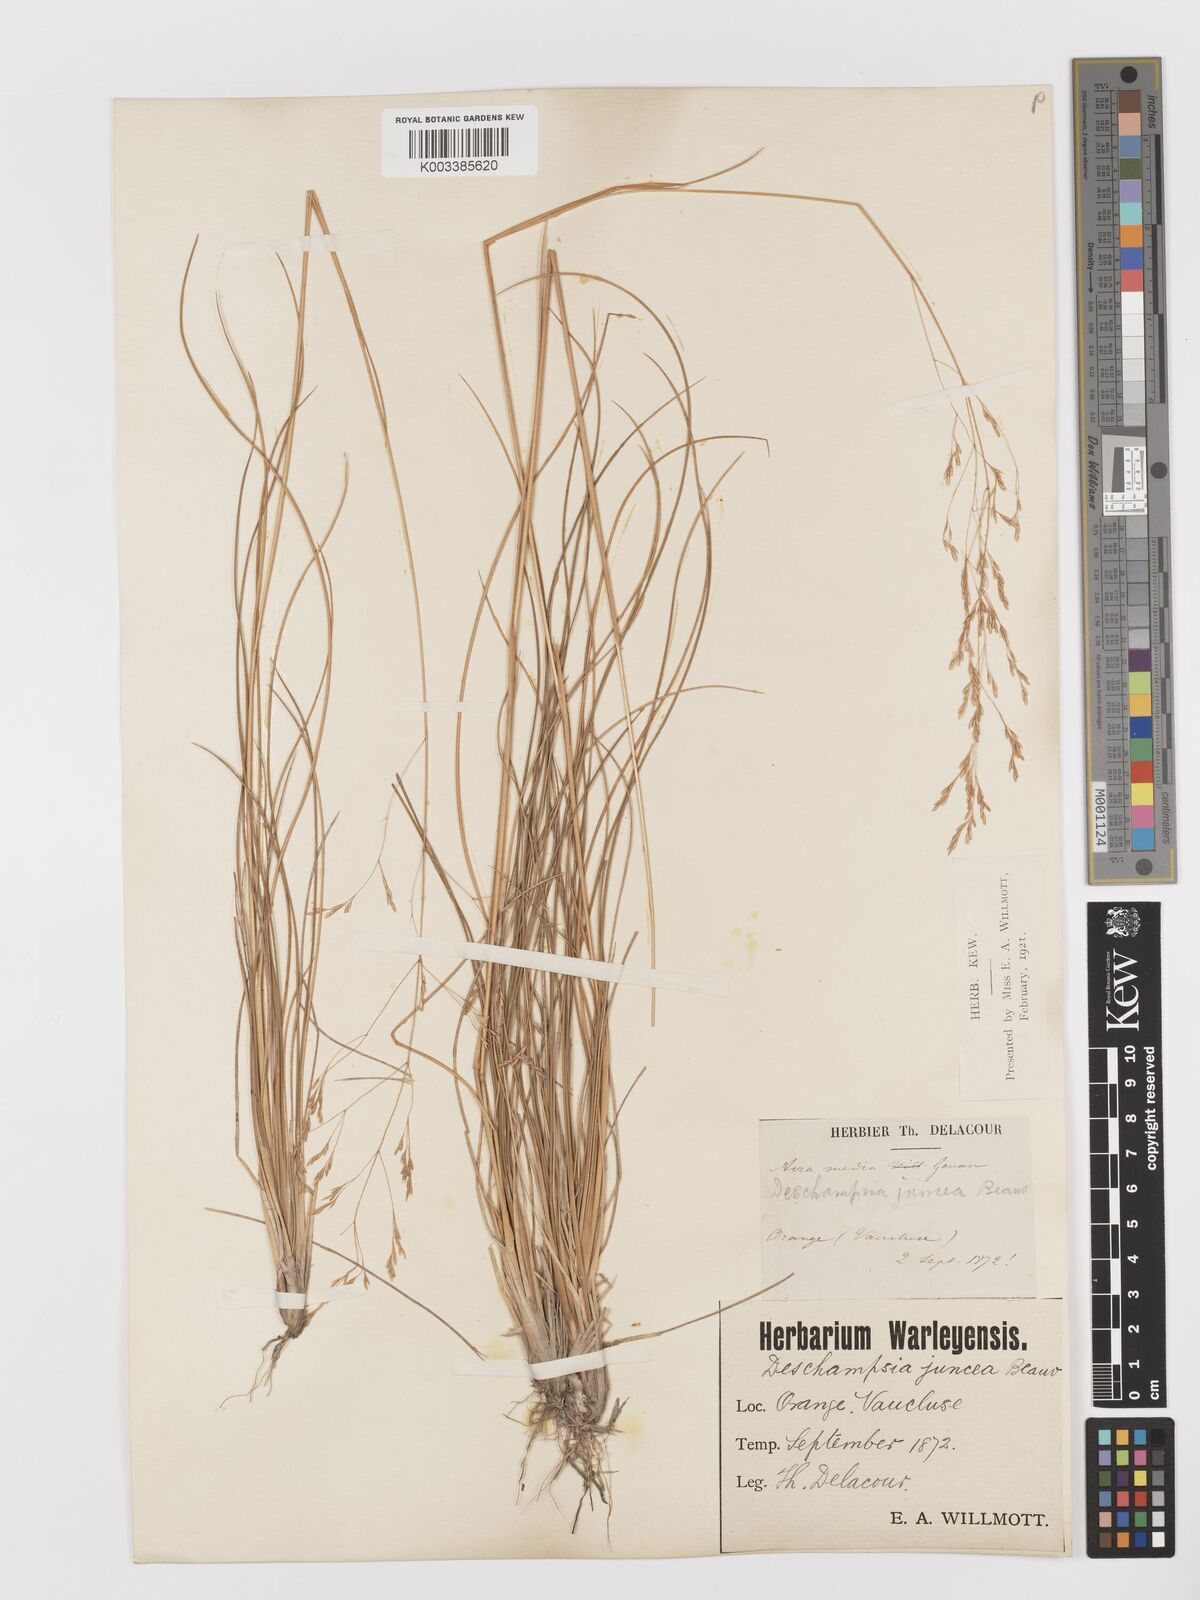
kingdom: Plantae
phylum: Tracheophyta
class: Liliopsida
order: Poales
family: Poaceae
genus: Deschampsia
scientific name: Deschampsia media
